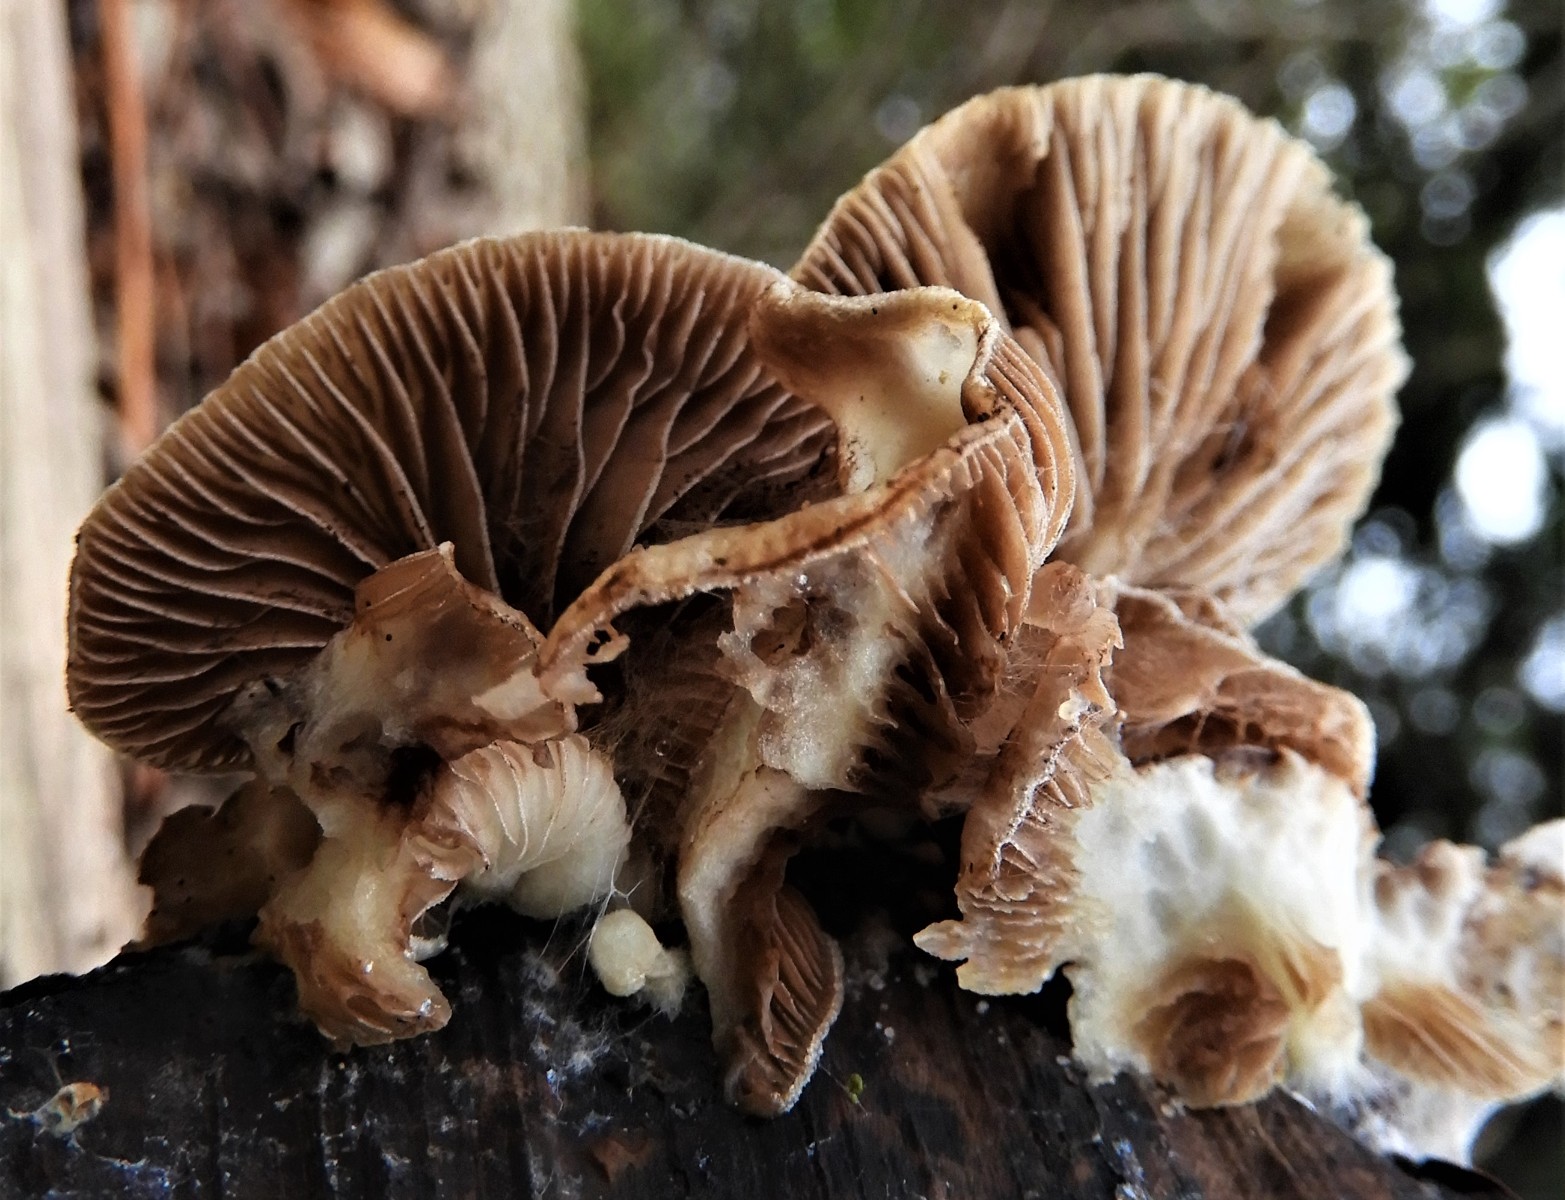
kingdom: Fungi
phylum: Basidiomycota
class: Agaricomycetes
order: Agaricales
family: Crepidotaceae
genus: Crepidotus
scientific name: Crepidotus
